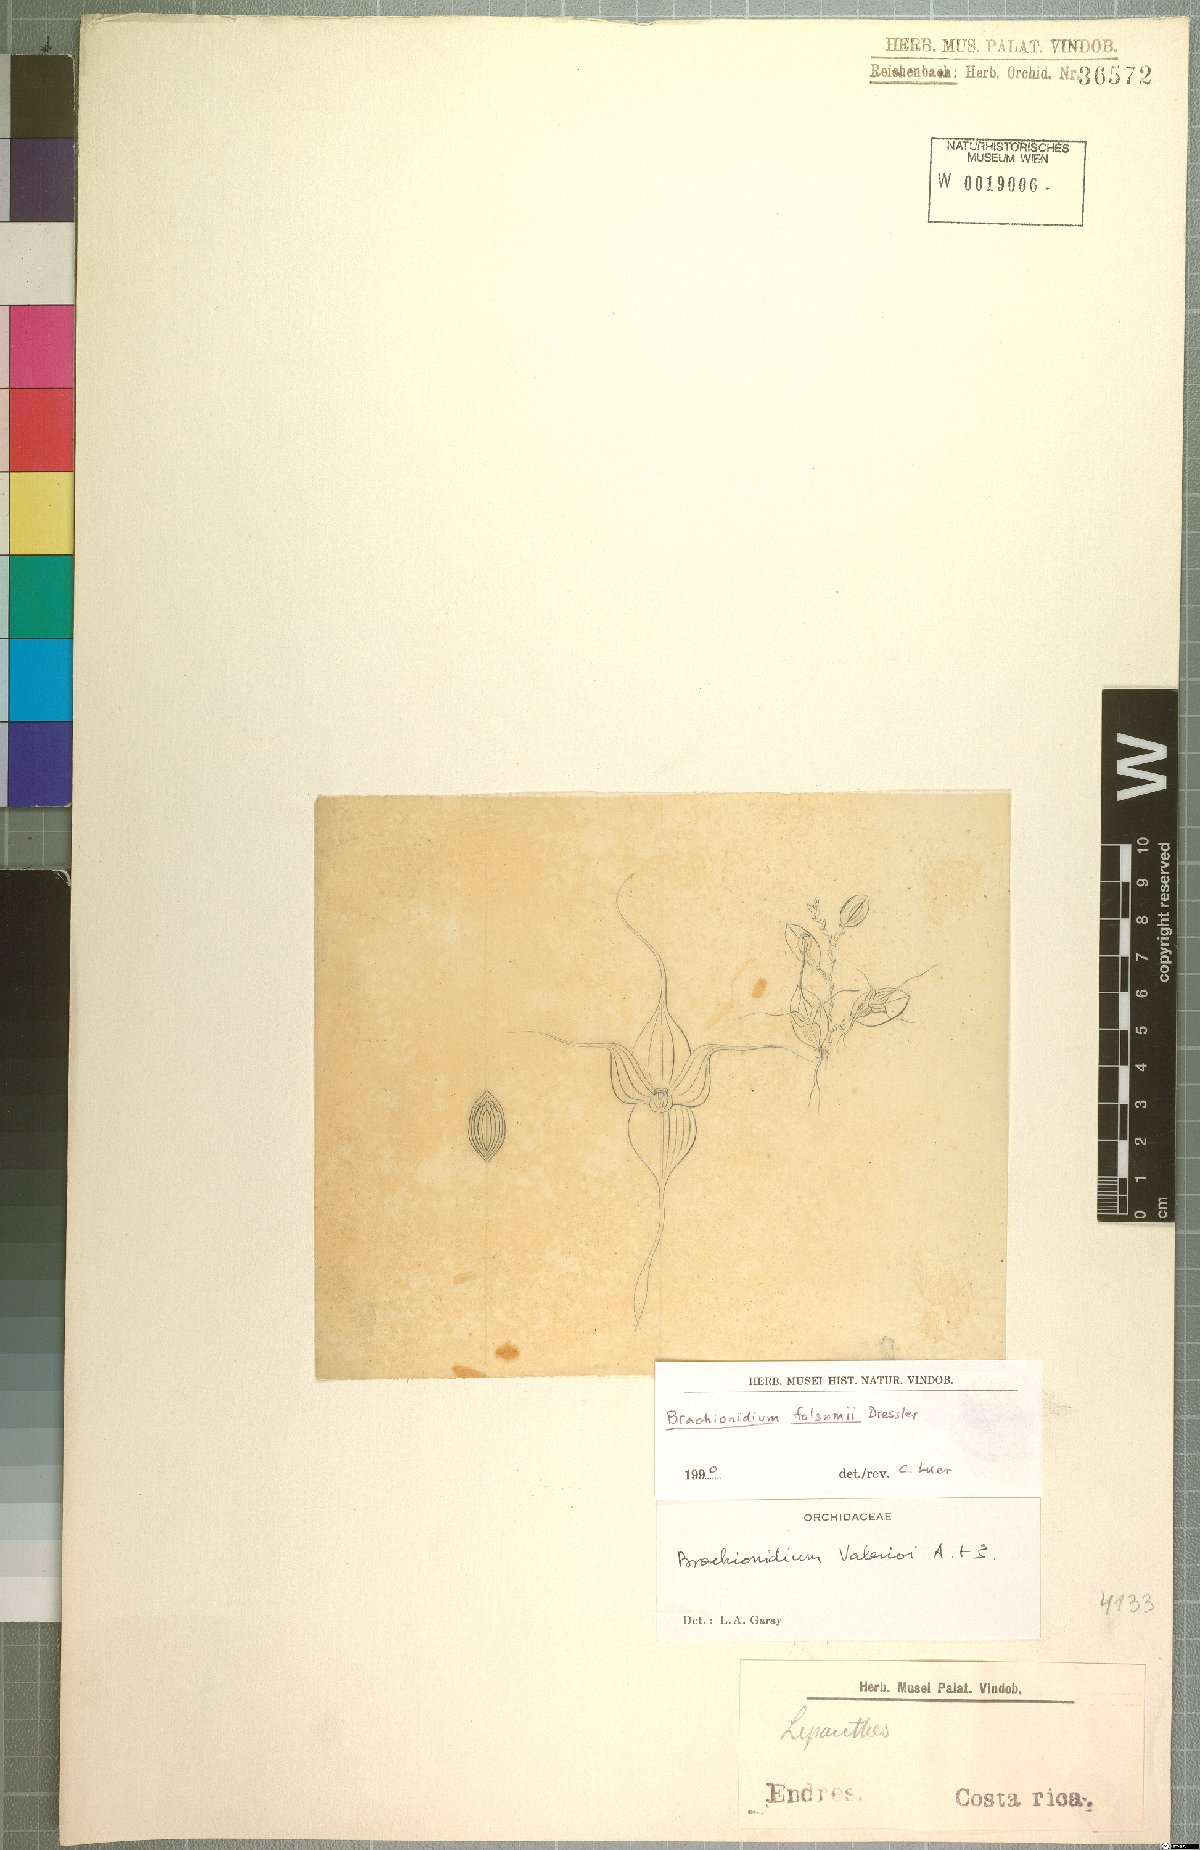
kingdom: Plantae
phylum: Tracheophyta
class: Liliopsida
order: Asparagales
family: Orchidaceae
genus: Brachionidium
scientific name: Brachionidium folsomii
